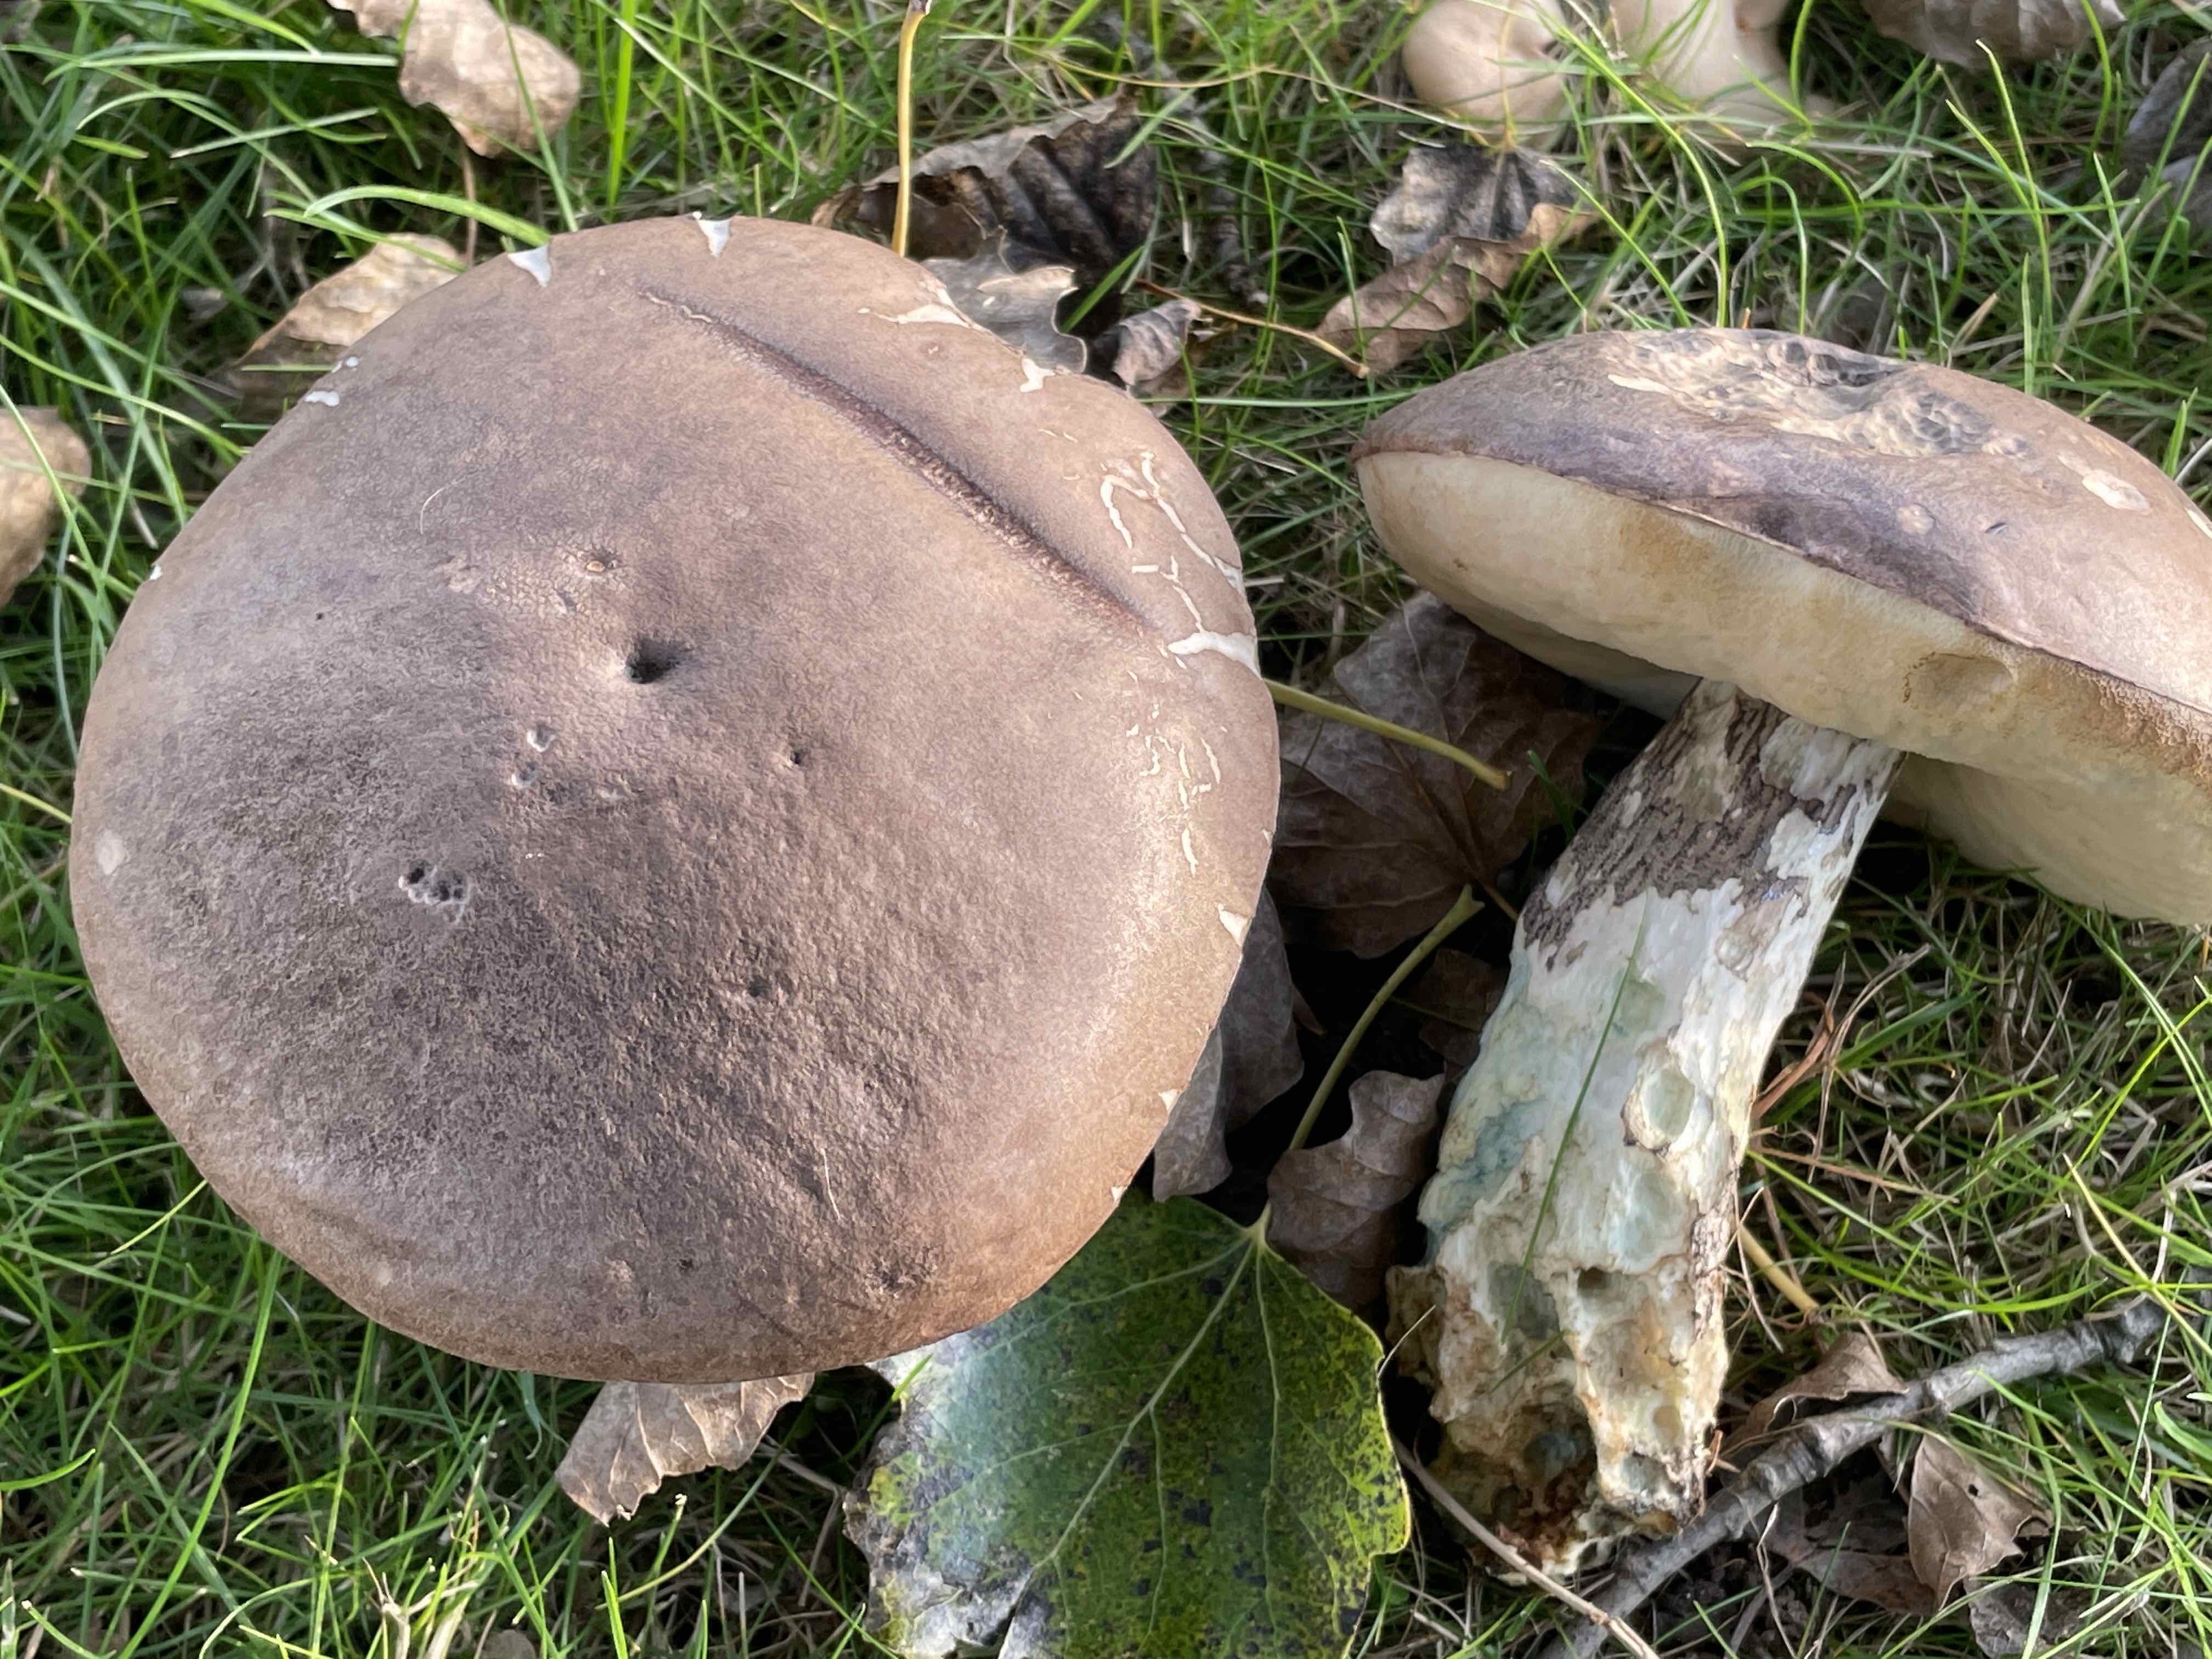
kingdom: Fungi
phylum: Basidiomycota
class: Agaricomycetes
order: Boletales
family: Boletaceae
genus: Leccinum
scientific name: Leccinum duriusculum
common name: poppel-skælrørhat
